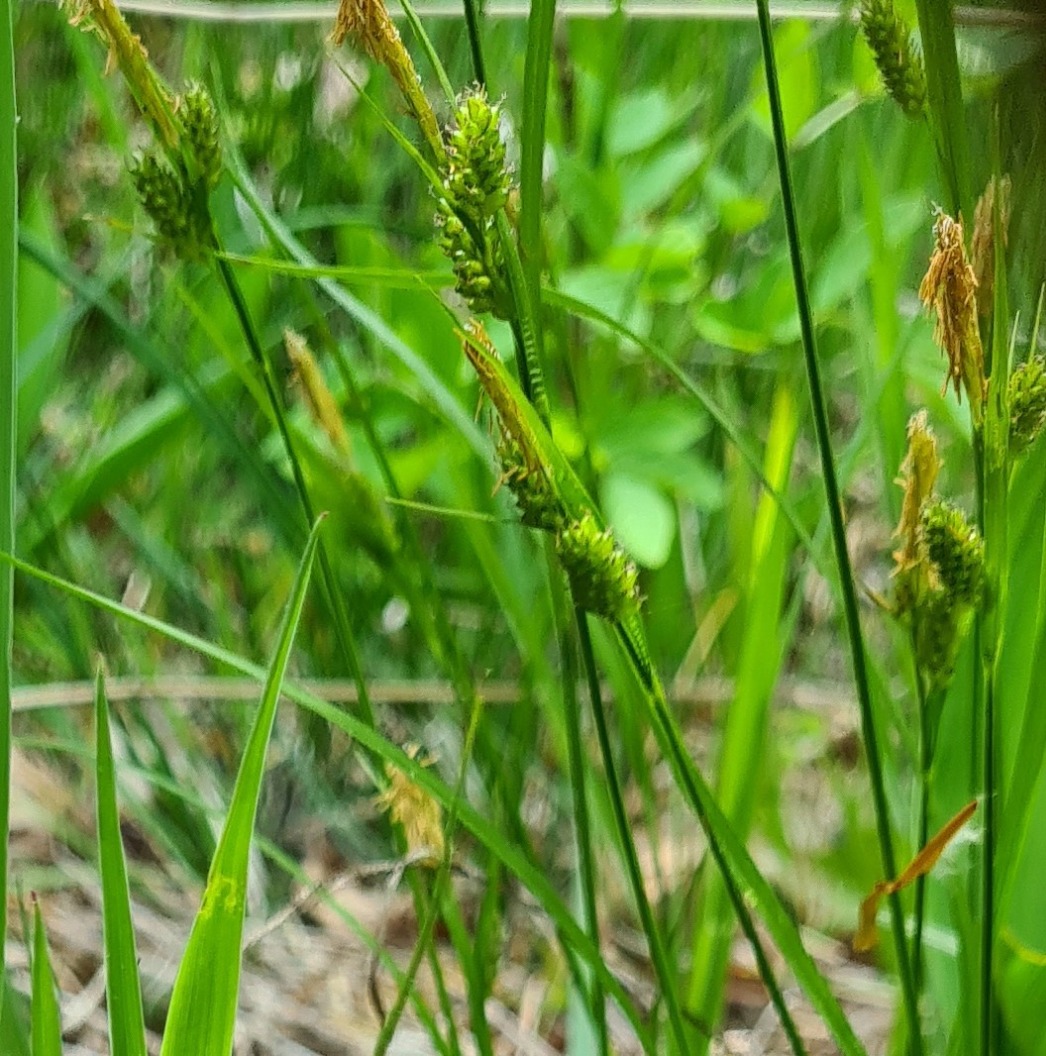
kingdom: Plantae
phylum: Tracheophyta
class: Liliopsida
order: Poales
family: Cyperaceae
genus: Carex
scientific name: Carex pallescens
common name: Bleg star
